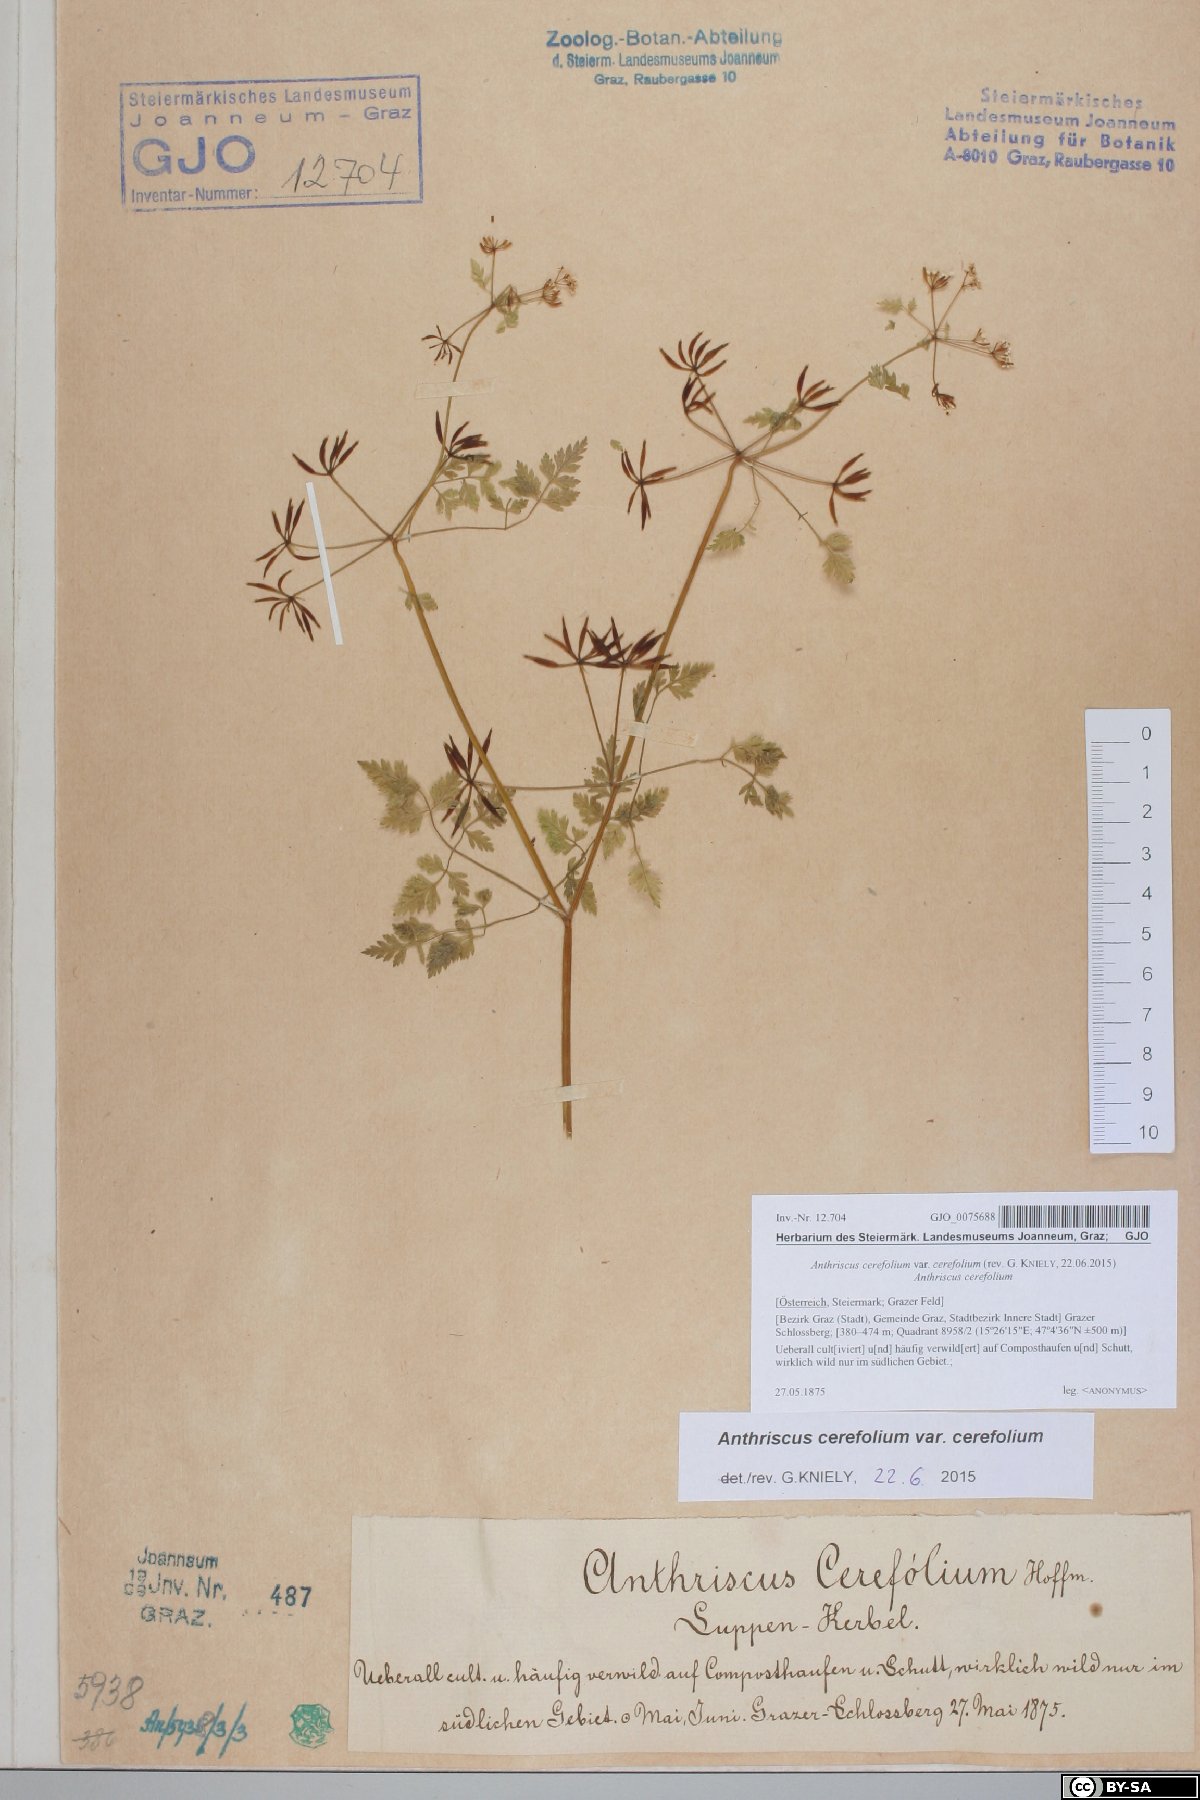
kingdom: Plantae
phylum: Tracheophyta
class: Magnoliopsida
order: Apiales
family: Apiaceae
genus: Anthriscus
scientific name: Anthriscus cerefolium
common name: Garden chervil
